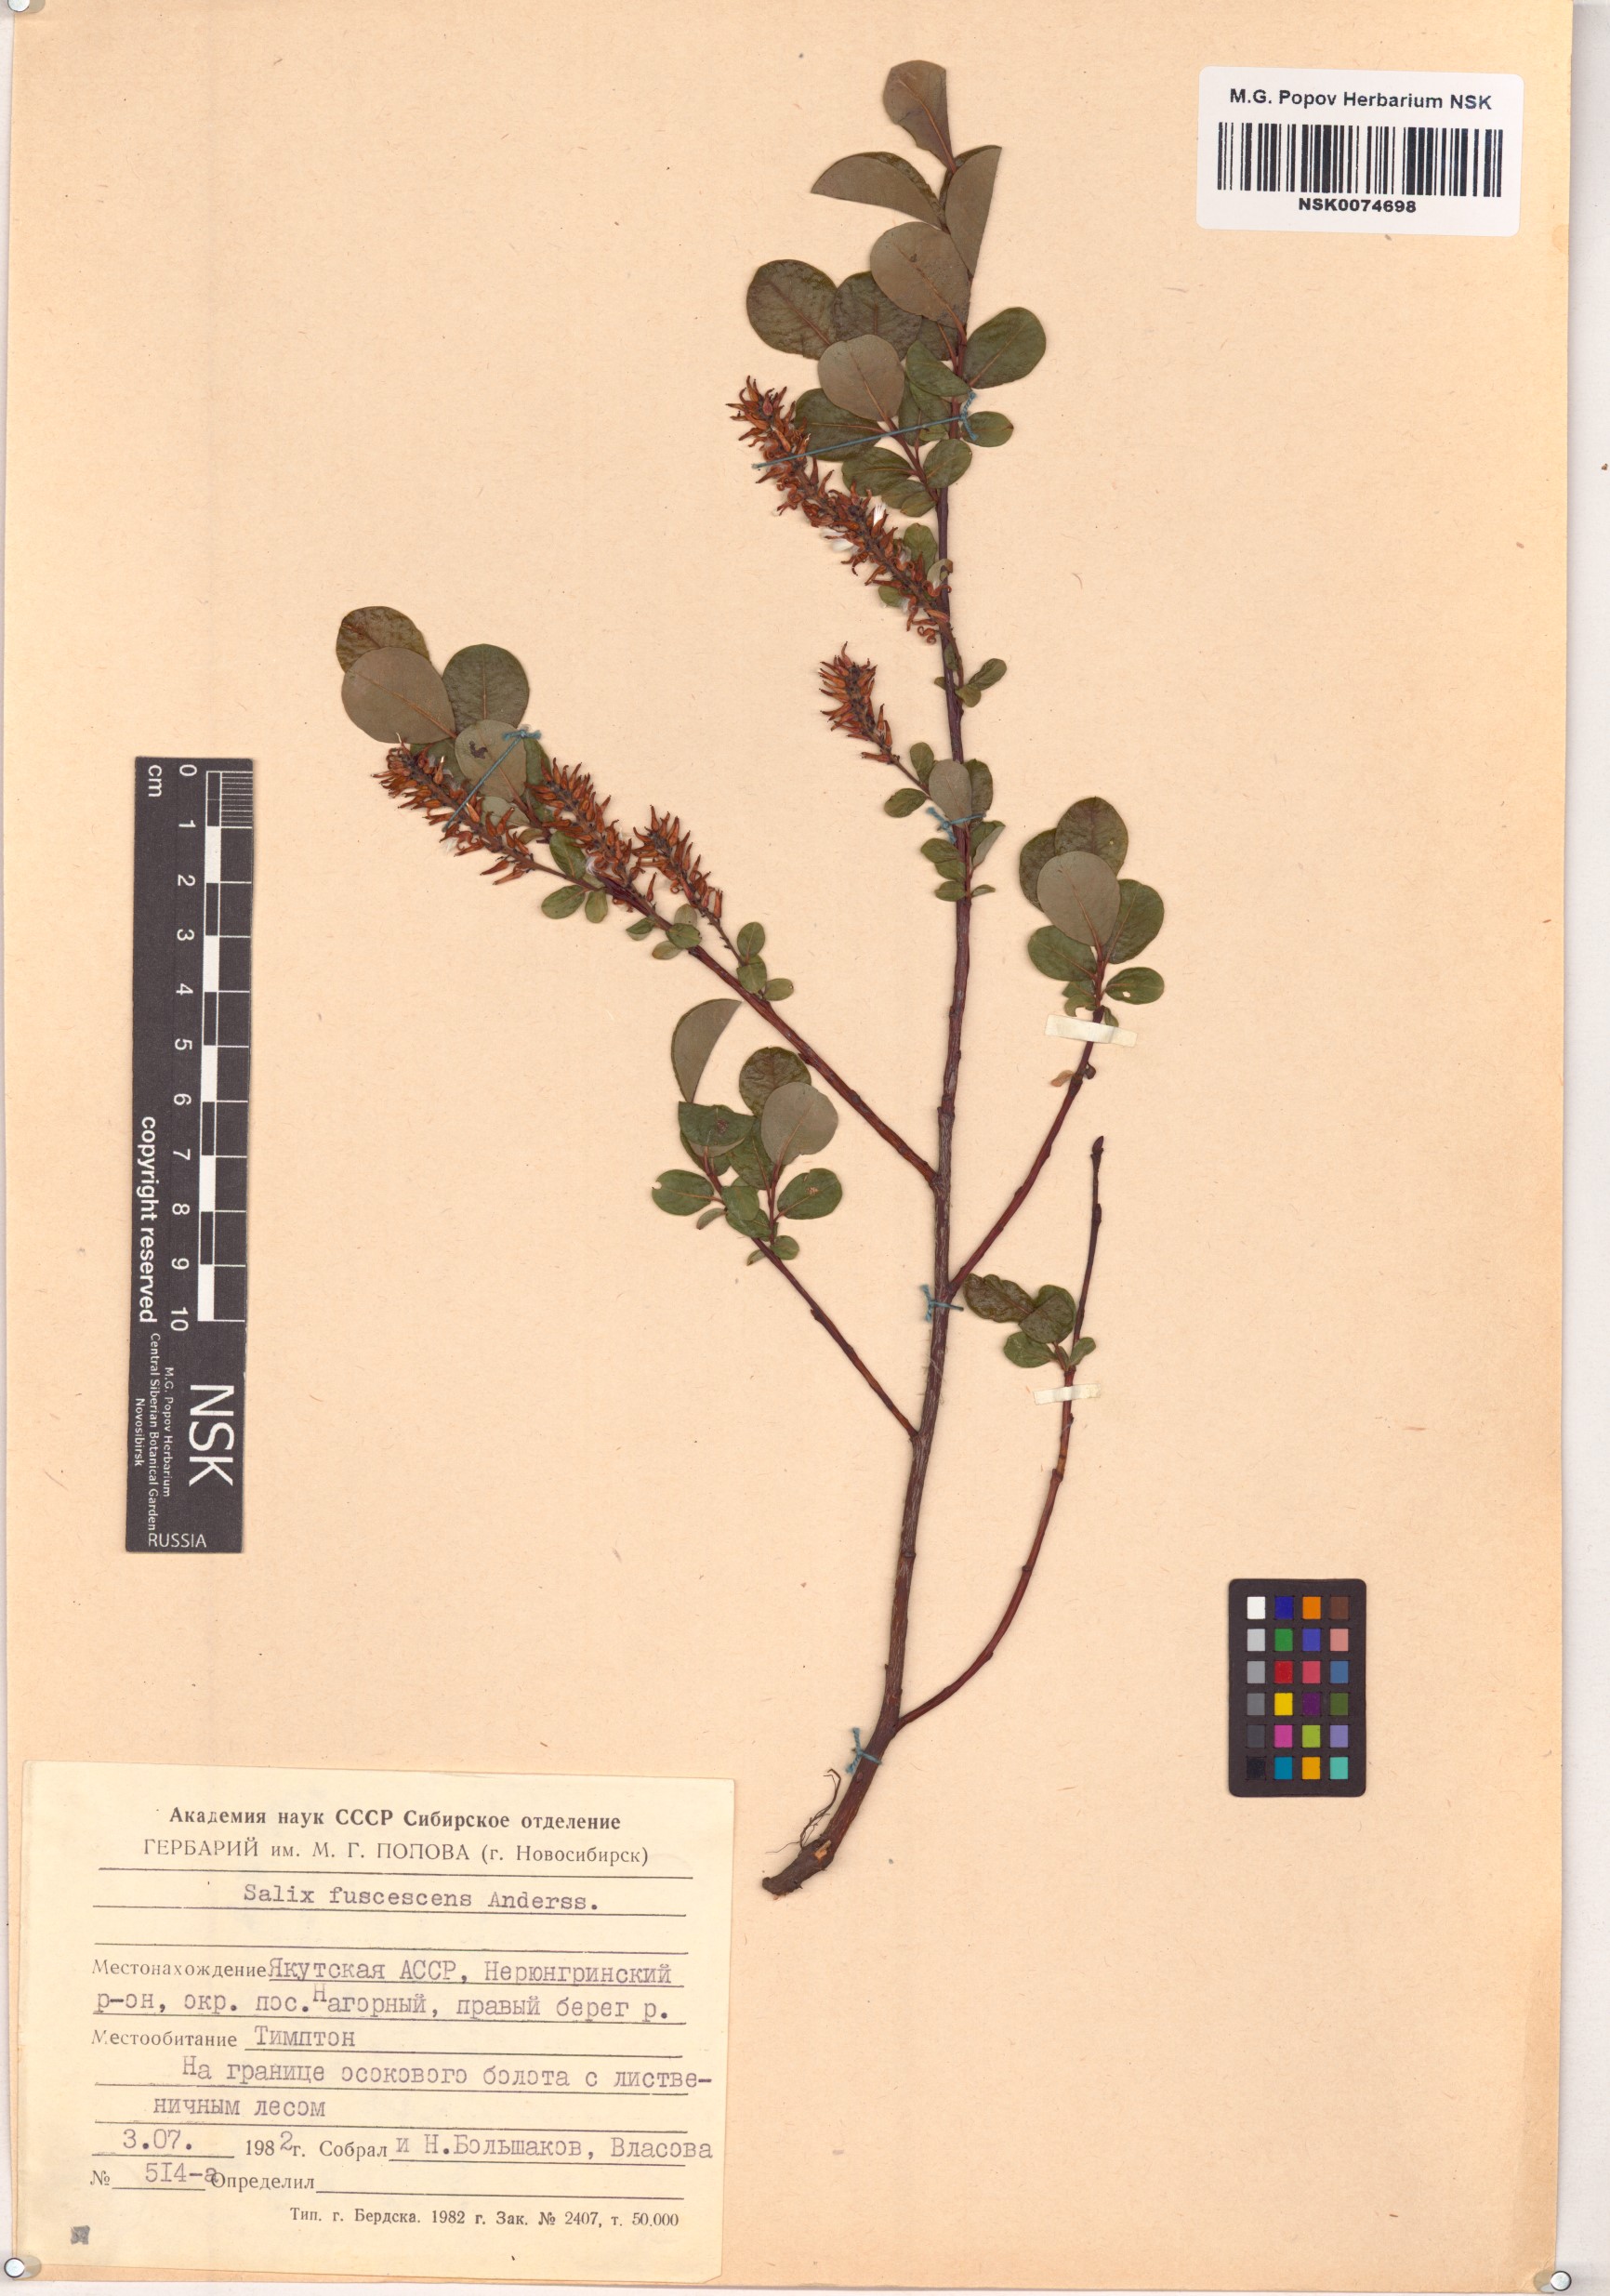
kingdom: Plantae
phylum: Tracheophyta
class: Magnoliopsida
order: Malpighiales
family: Salicaceae
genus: Salix
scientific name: Salix fuscescens
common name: Brownish willow
